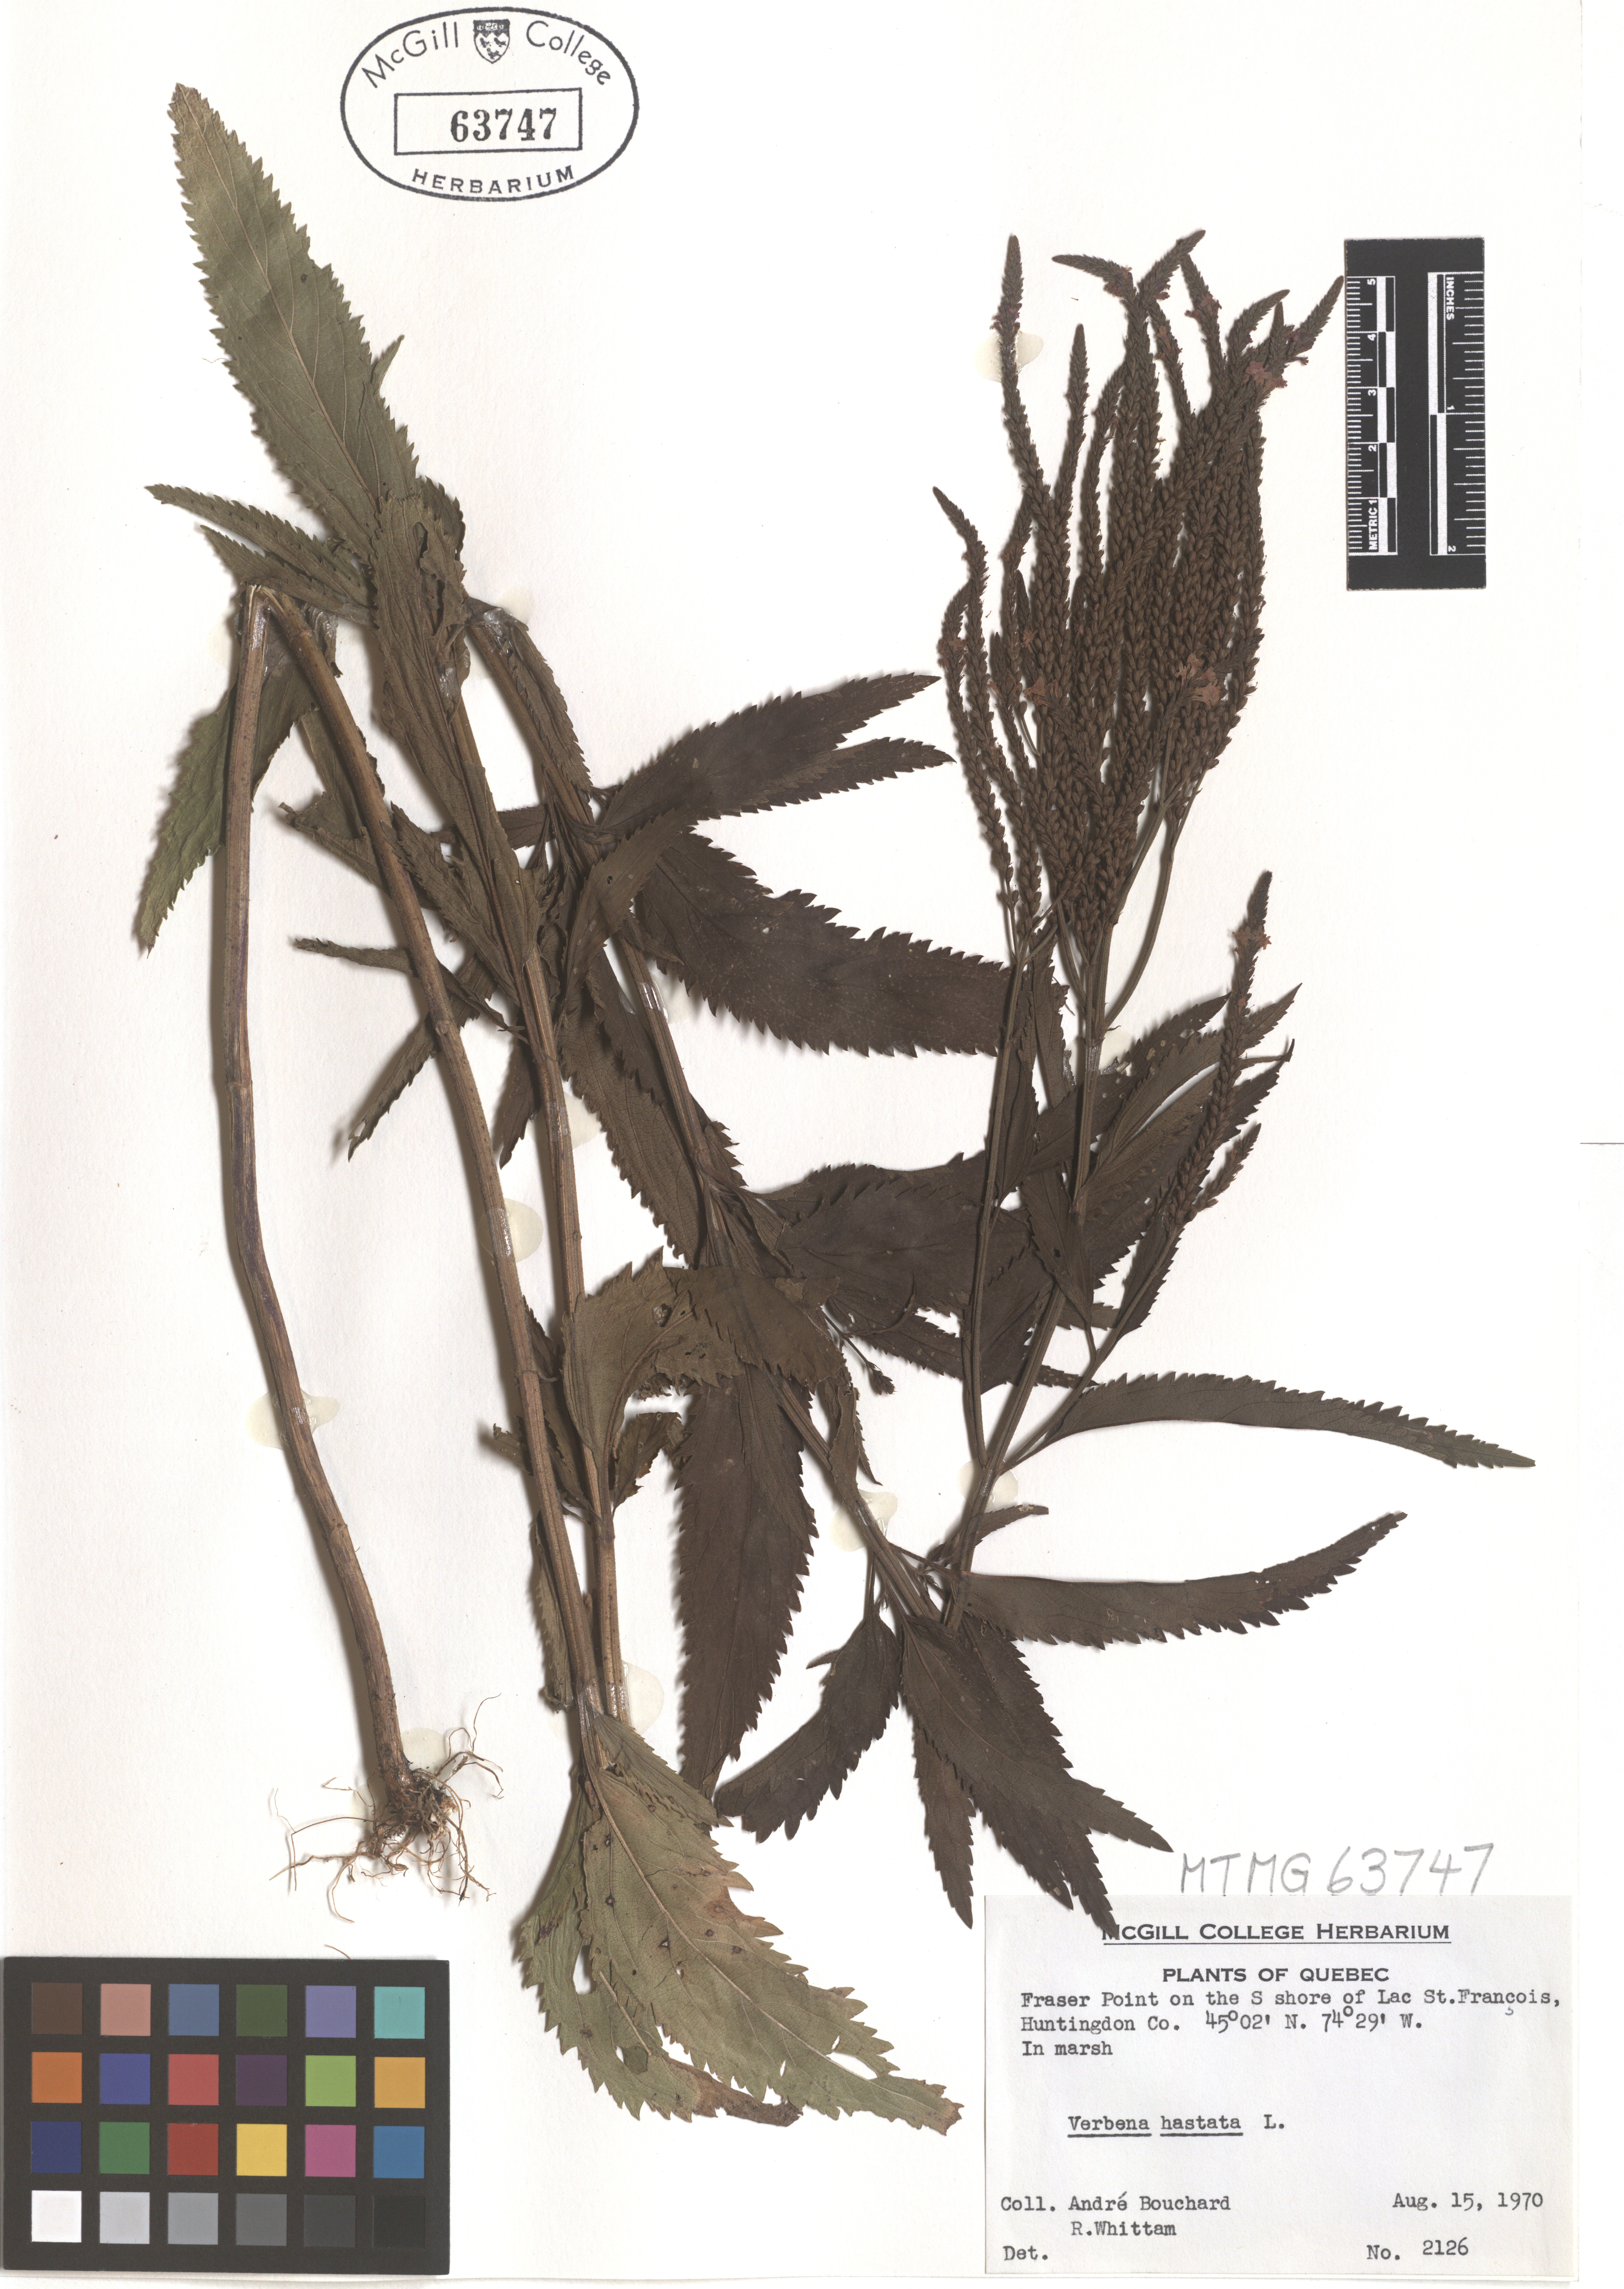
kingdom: Plantae
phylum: Tracheophyta
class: Magnoliopsida
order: Lamiales
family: Verbenaceae
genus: Verbena
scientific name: Verbena hastata
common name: American blue vervain
